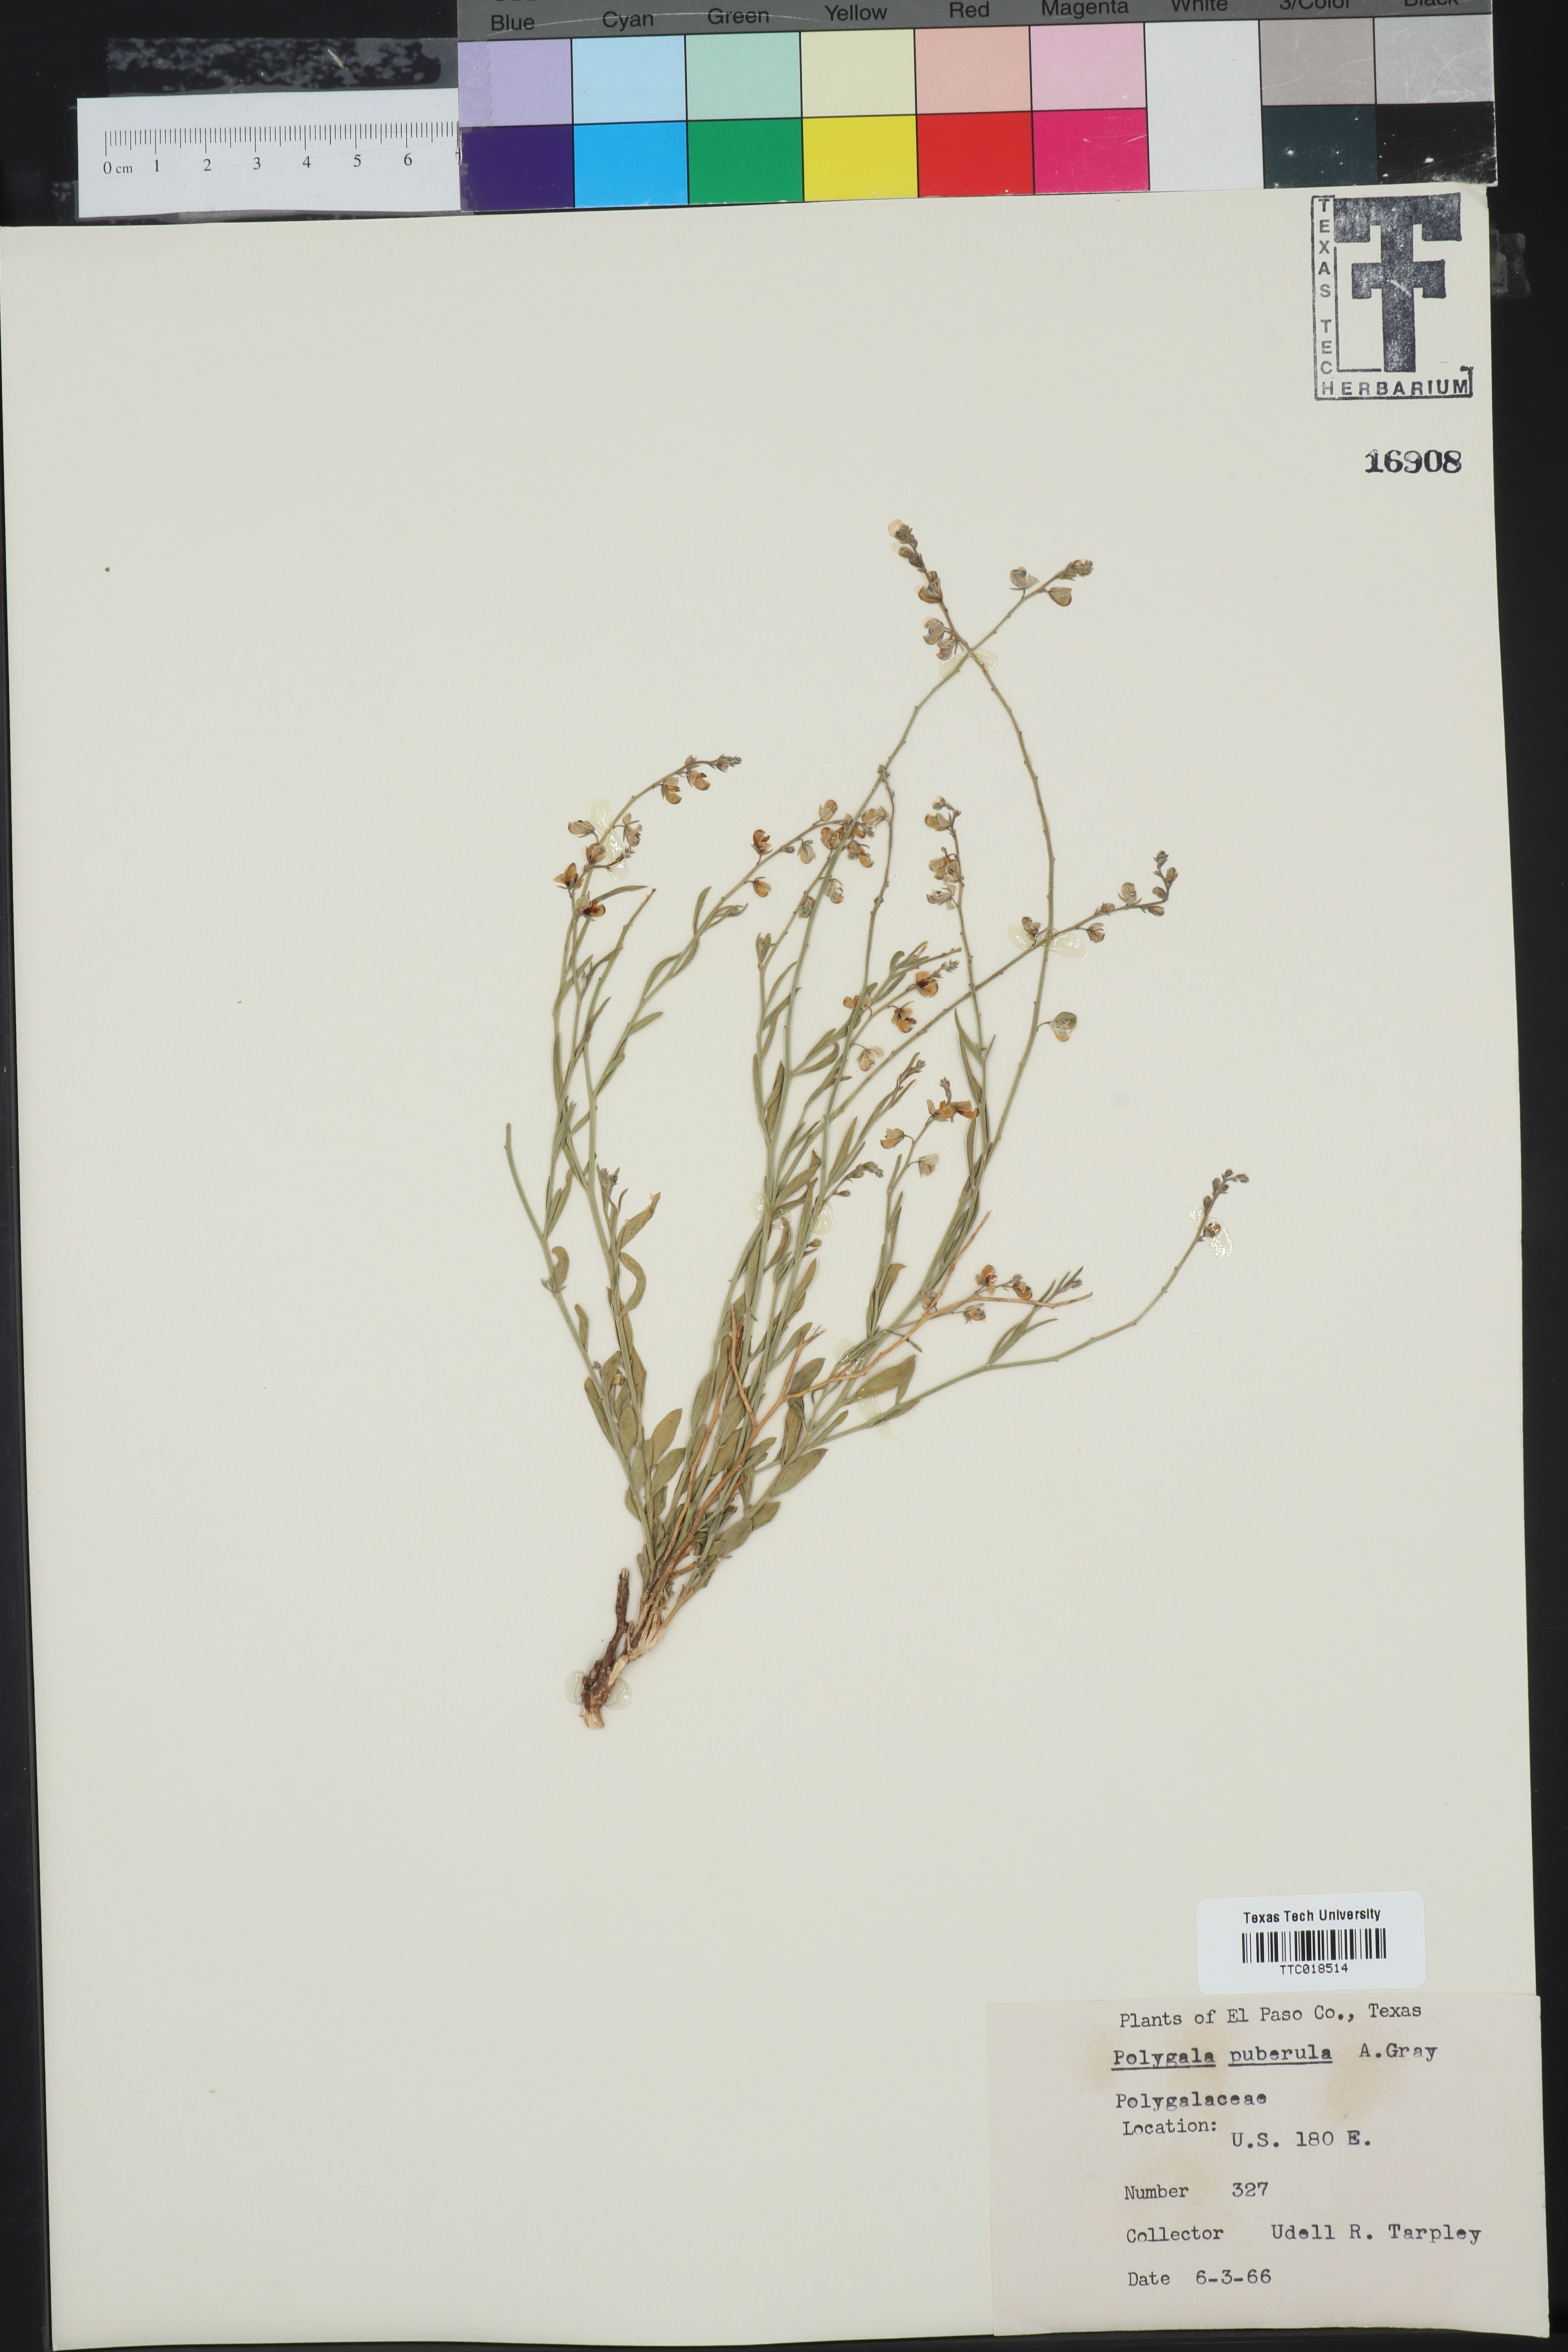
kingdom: Plantae
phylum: Tracheophyta
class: Magnoliopsida
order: Fabales
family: Polygalaceae
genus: Asemeia
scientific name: Asemeia violacea
